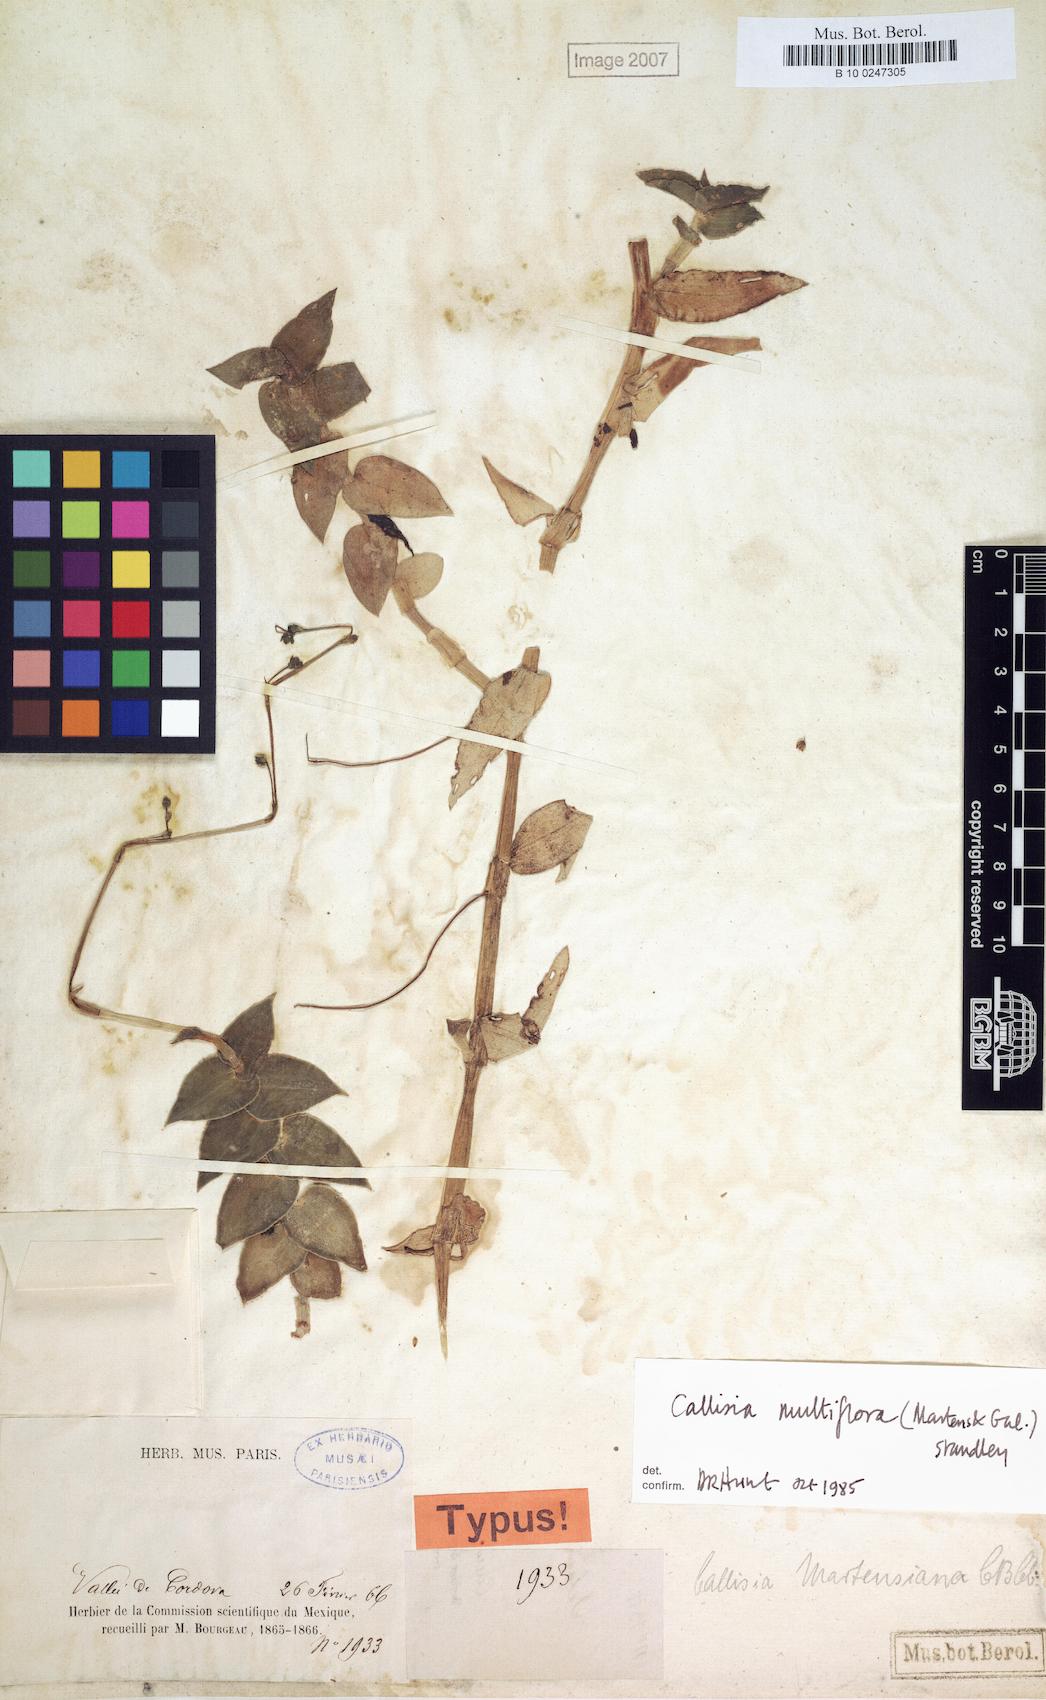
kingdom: Plantae
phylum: Tracheophyta
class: Liliopsida
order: Commelinales
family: Commelinaceae
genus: Callisia
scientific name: Callisia multiflora
